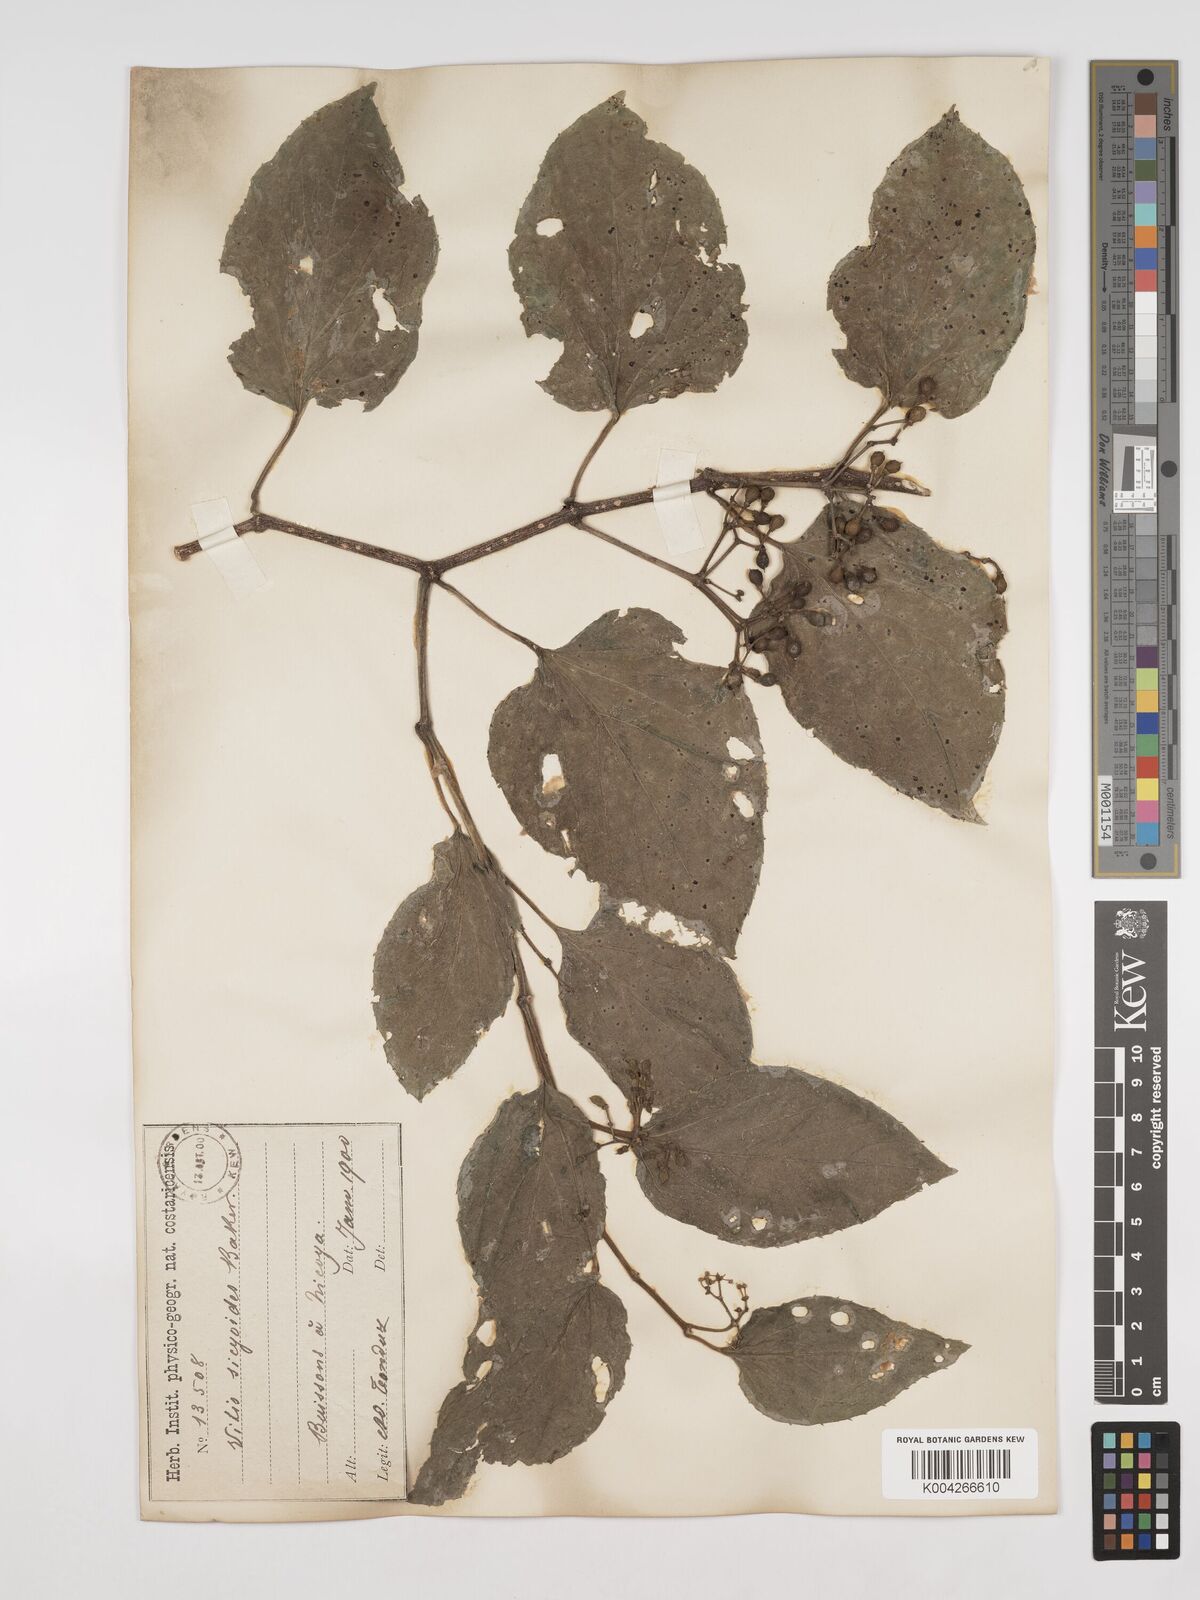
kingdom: Plantae
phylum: Tracheophyta
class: Magnoliopsida
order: Vitales
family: Vitaceae
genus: Cissus
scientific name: Cissus
